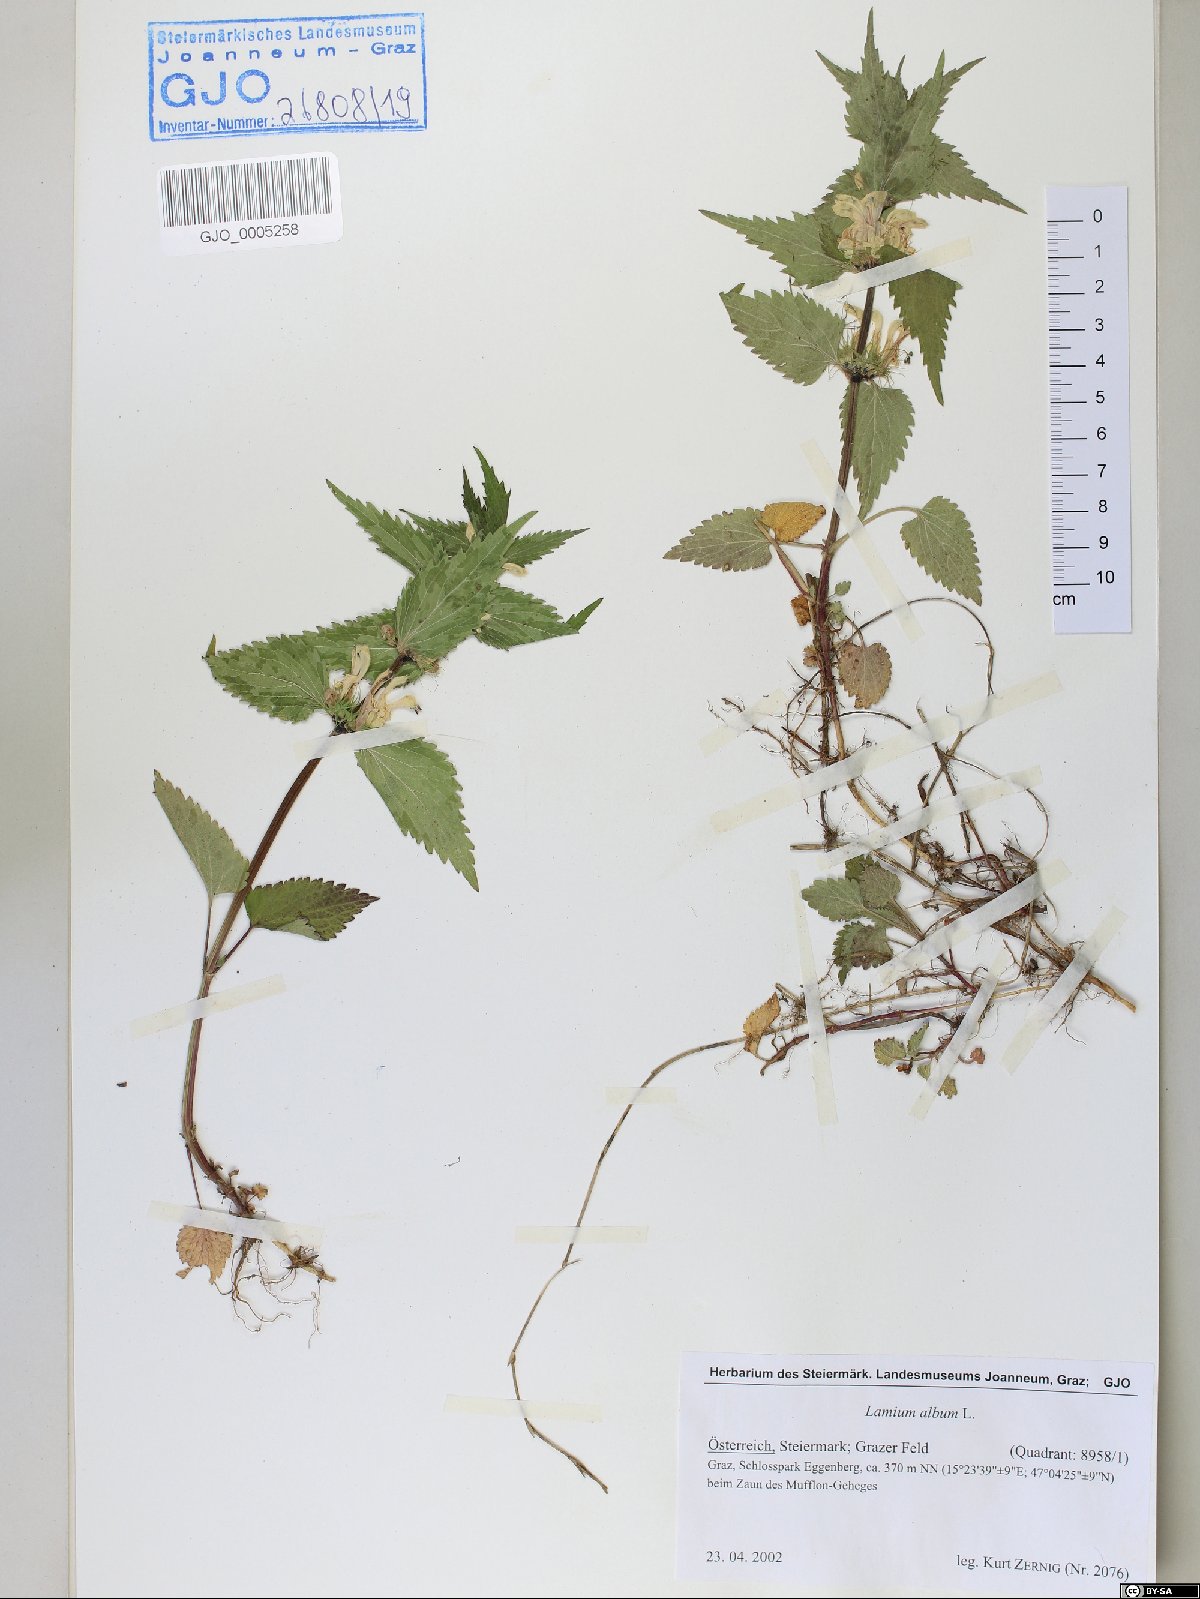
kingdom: Plantae
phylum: Tracheophyta
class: Magnoliopsida
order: Lamiales
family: Lamiaceae
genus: Lamium
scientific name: Lamium album
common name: White dead-nettle
